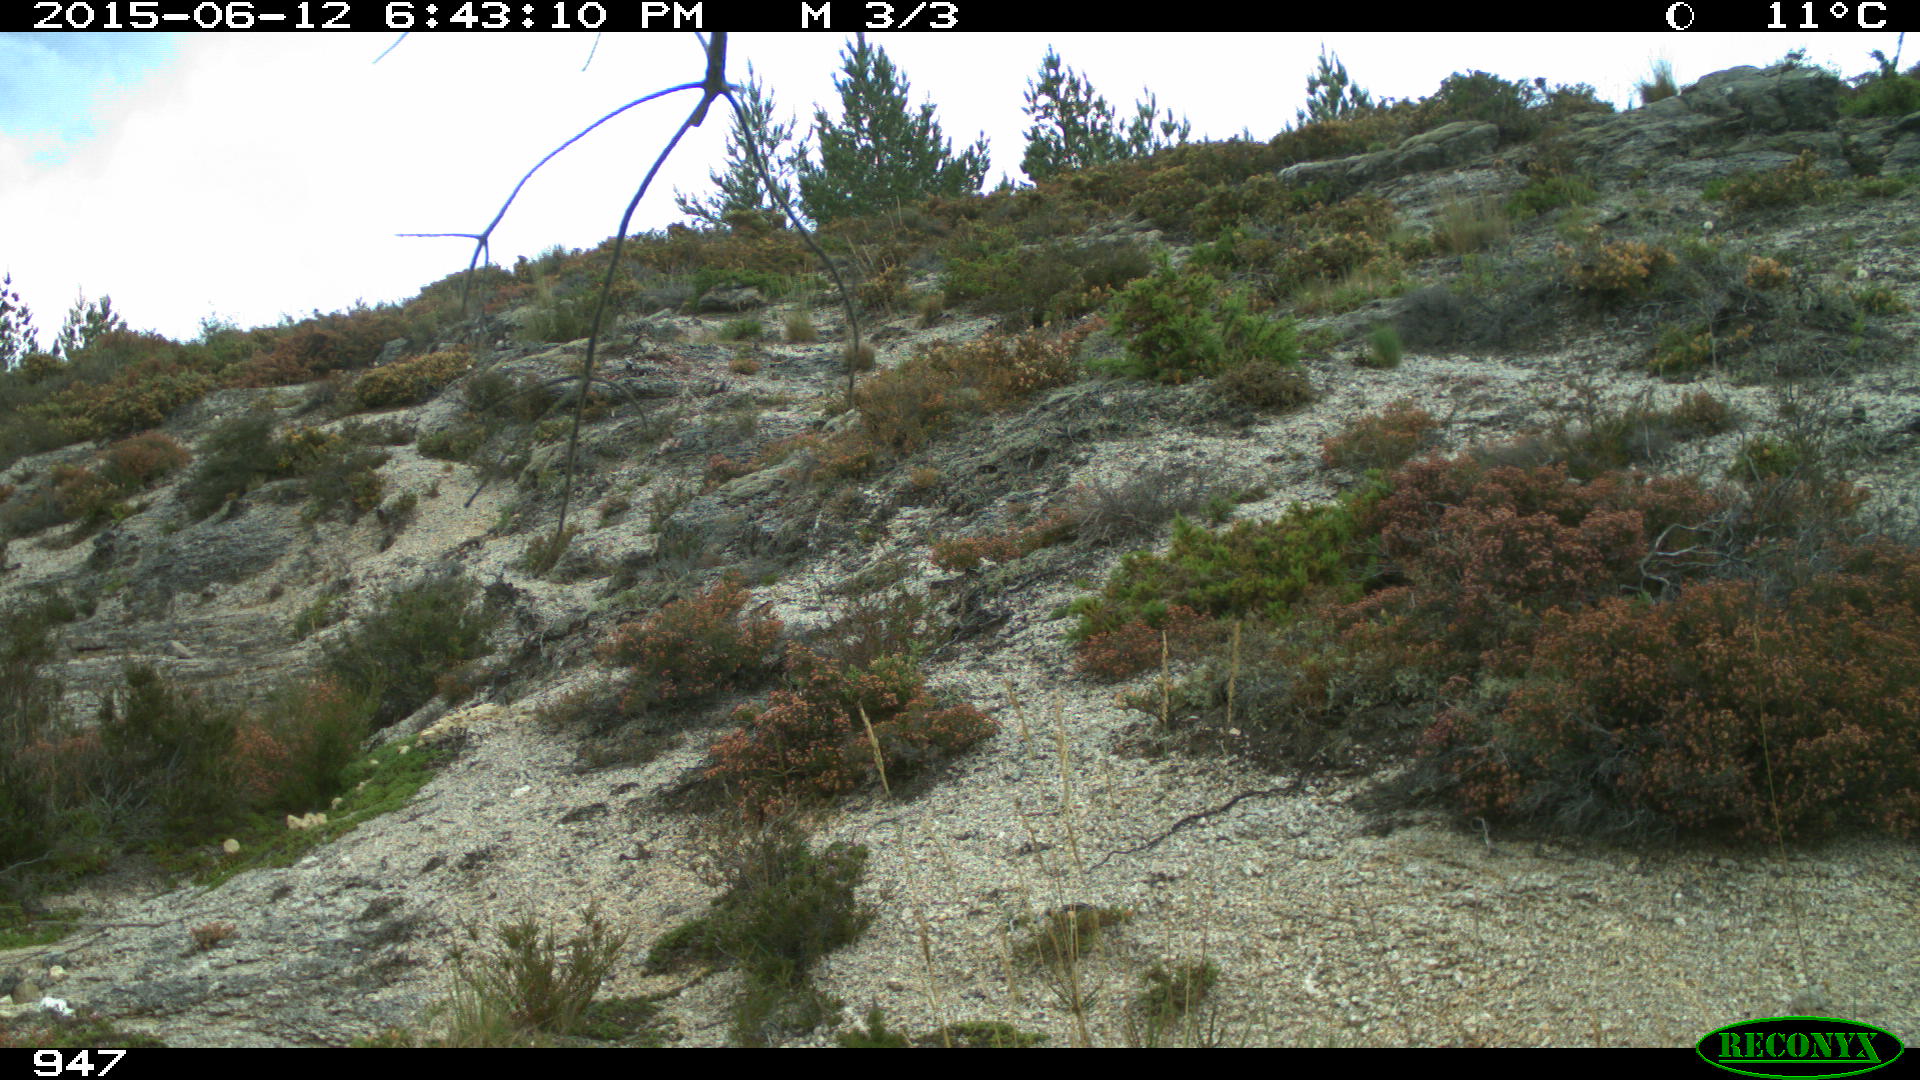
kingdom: Animalia
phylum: Chordata
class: Mammalia
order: Artiodactyla
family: Bovidae
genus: Bos
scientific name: Bos taurus
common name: Domesticated cattle
